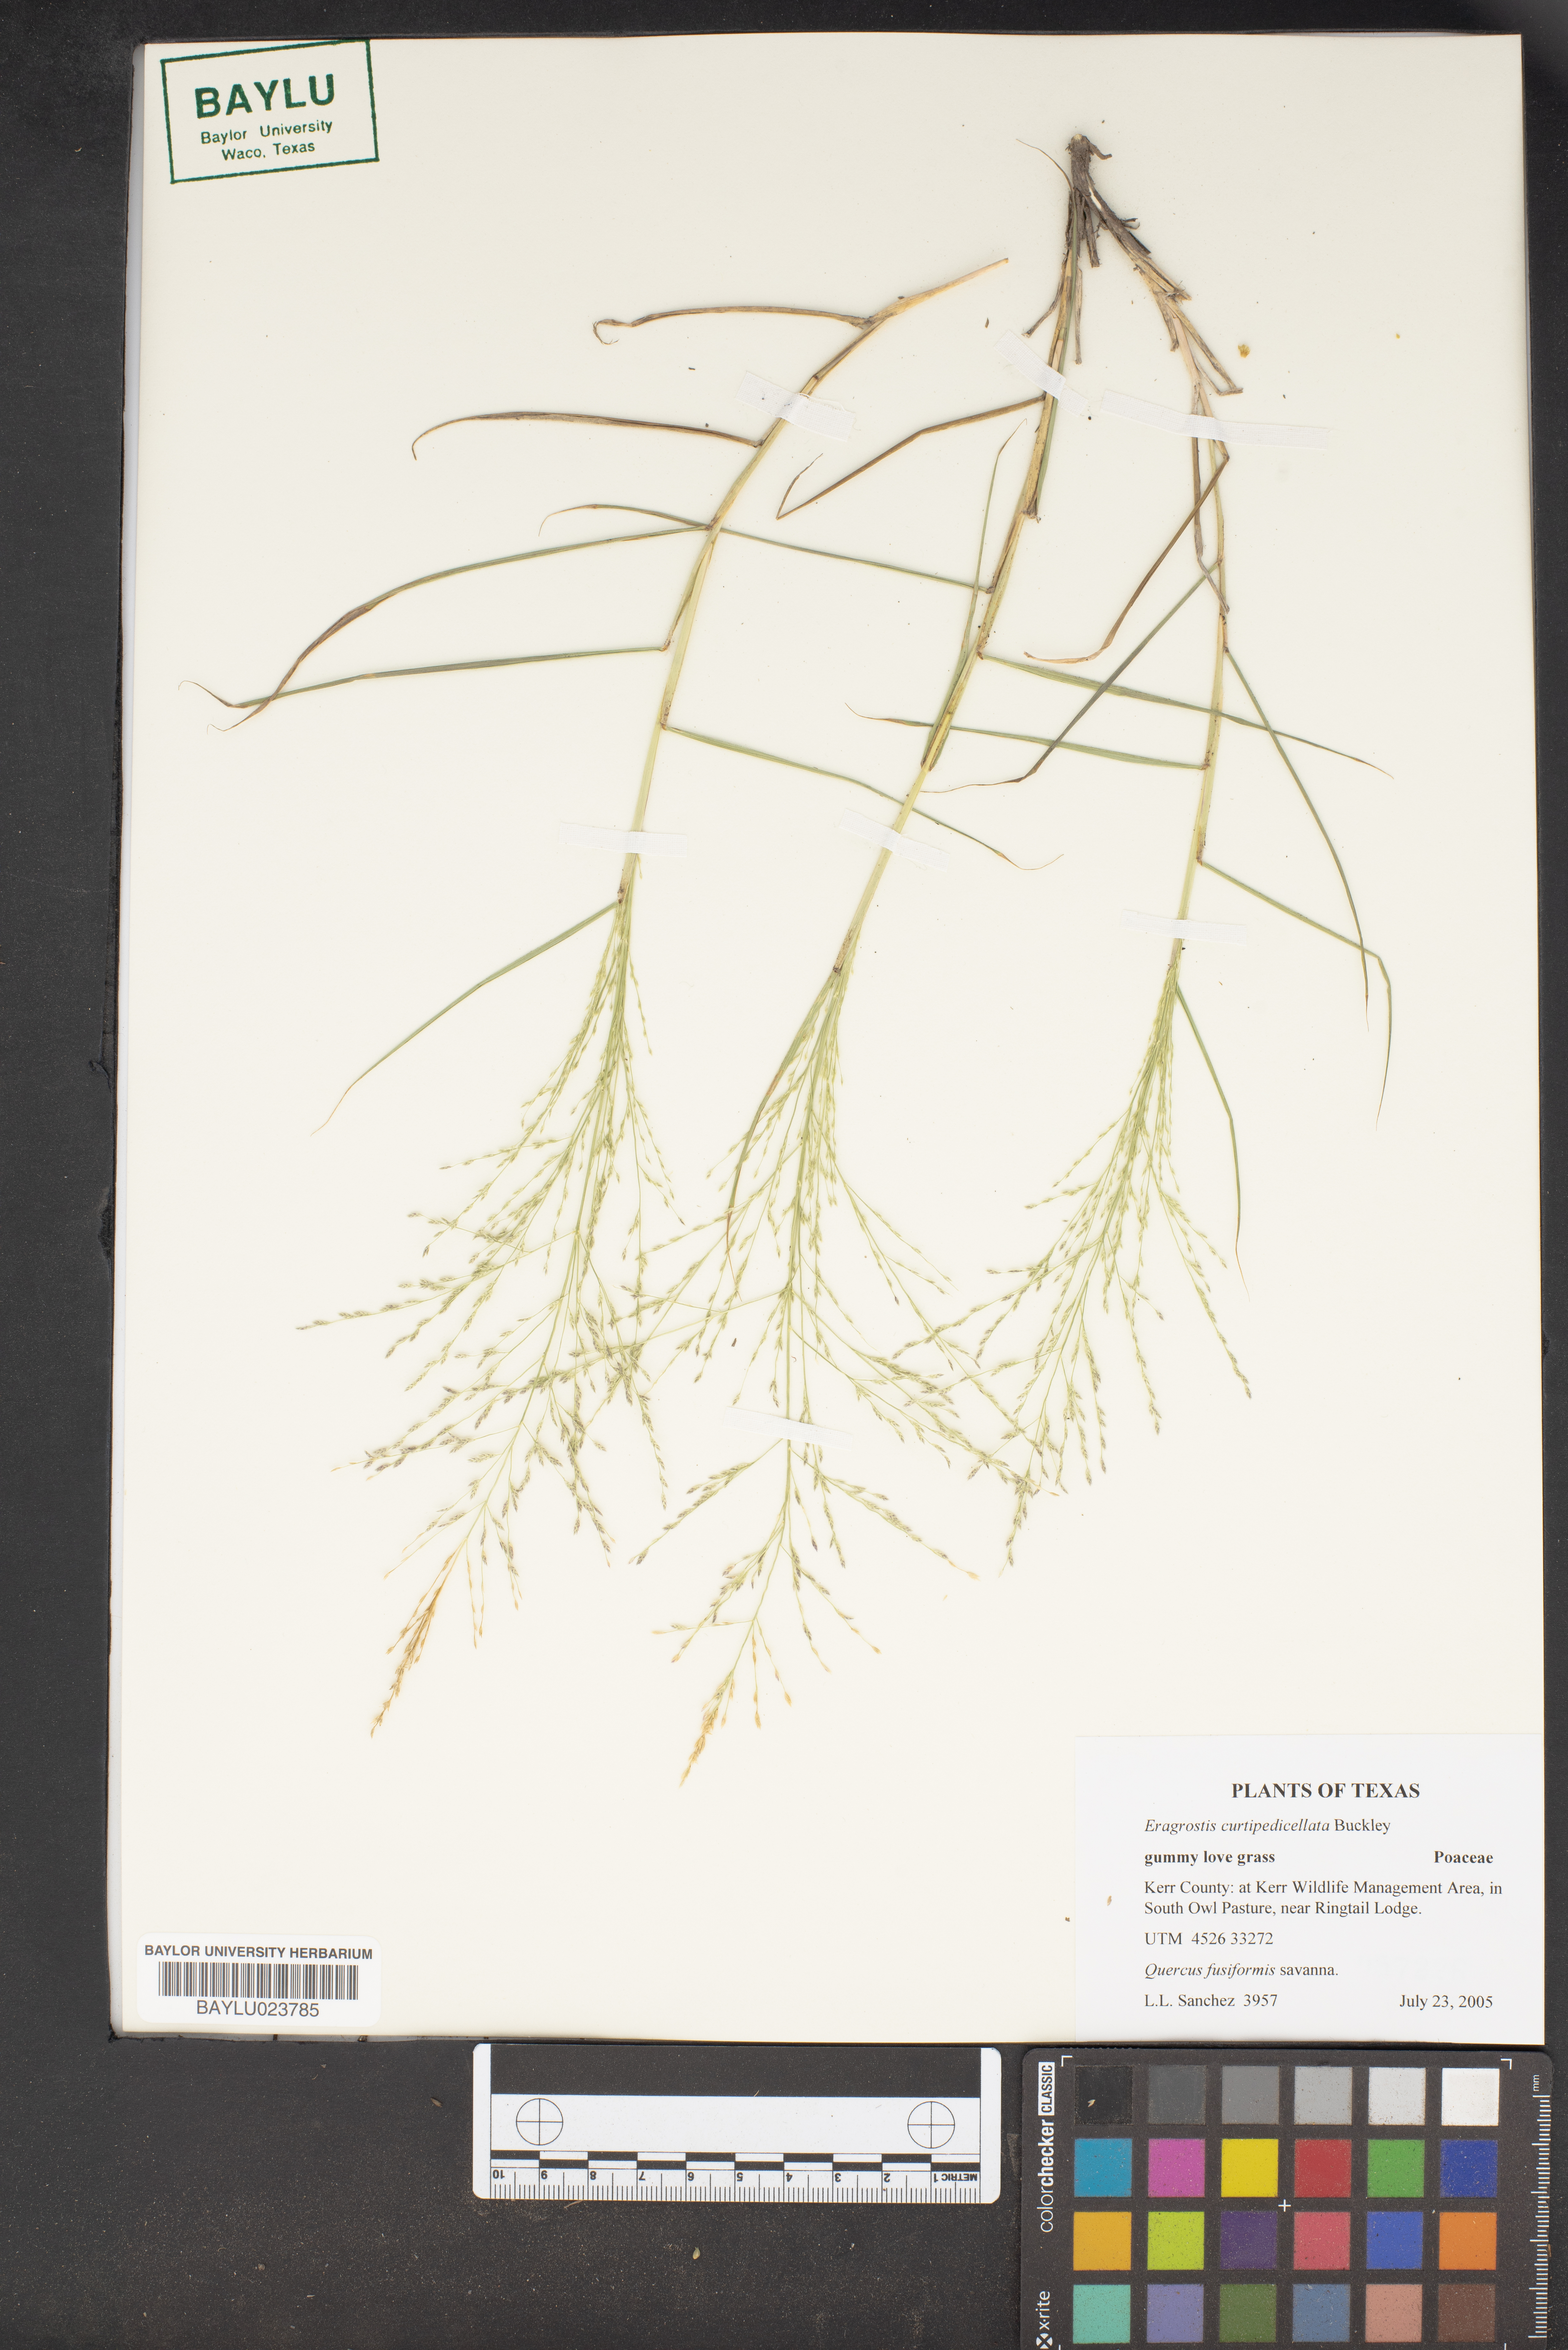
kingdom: Plantae
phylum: Tracheophyta
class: Liliopsida
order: Poales
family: Poaceae
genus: Eragrostis
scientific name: Eragrostis curtipedicellata
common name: Gummy love grass
